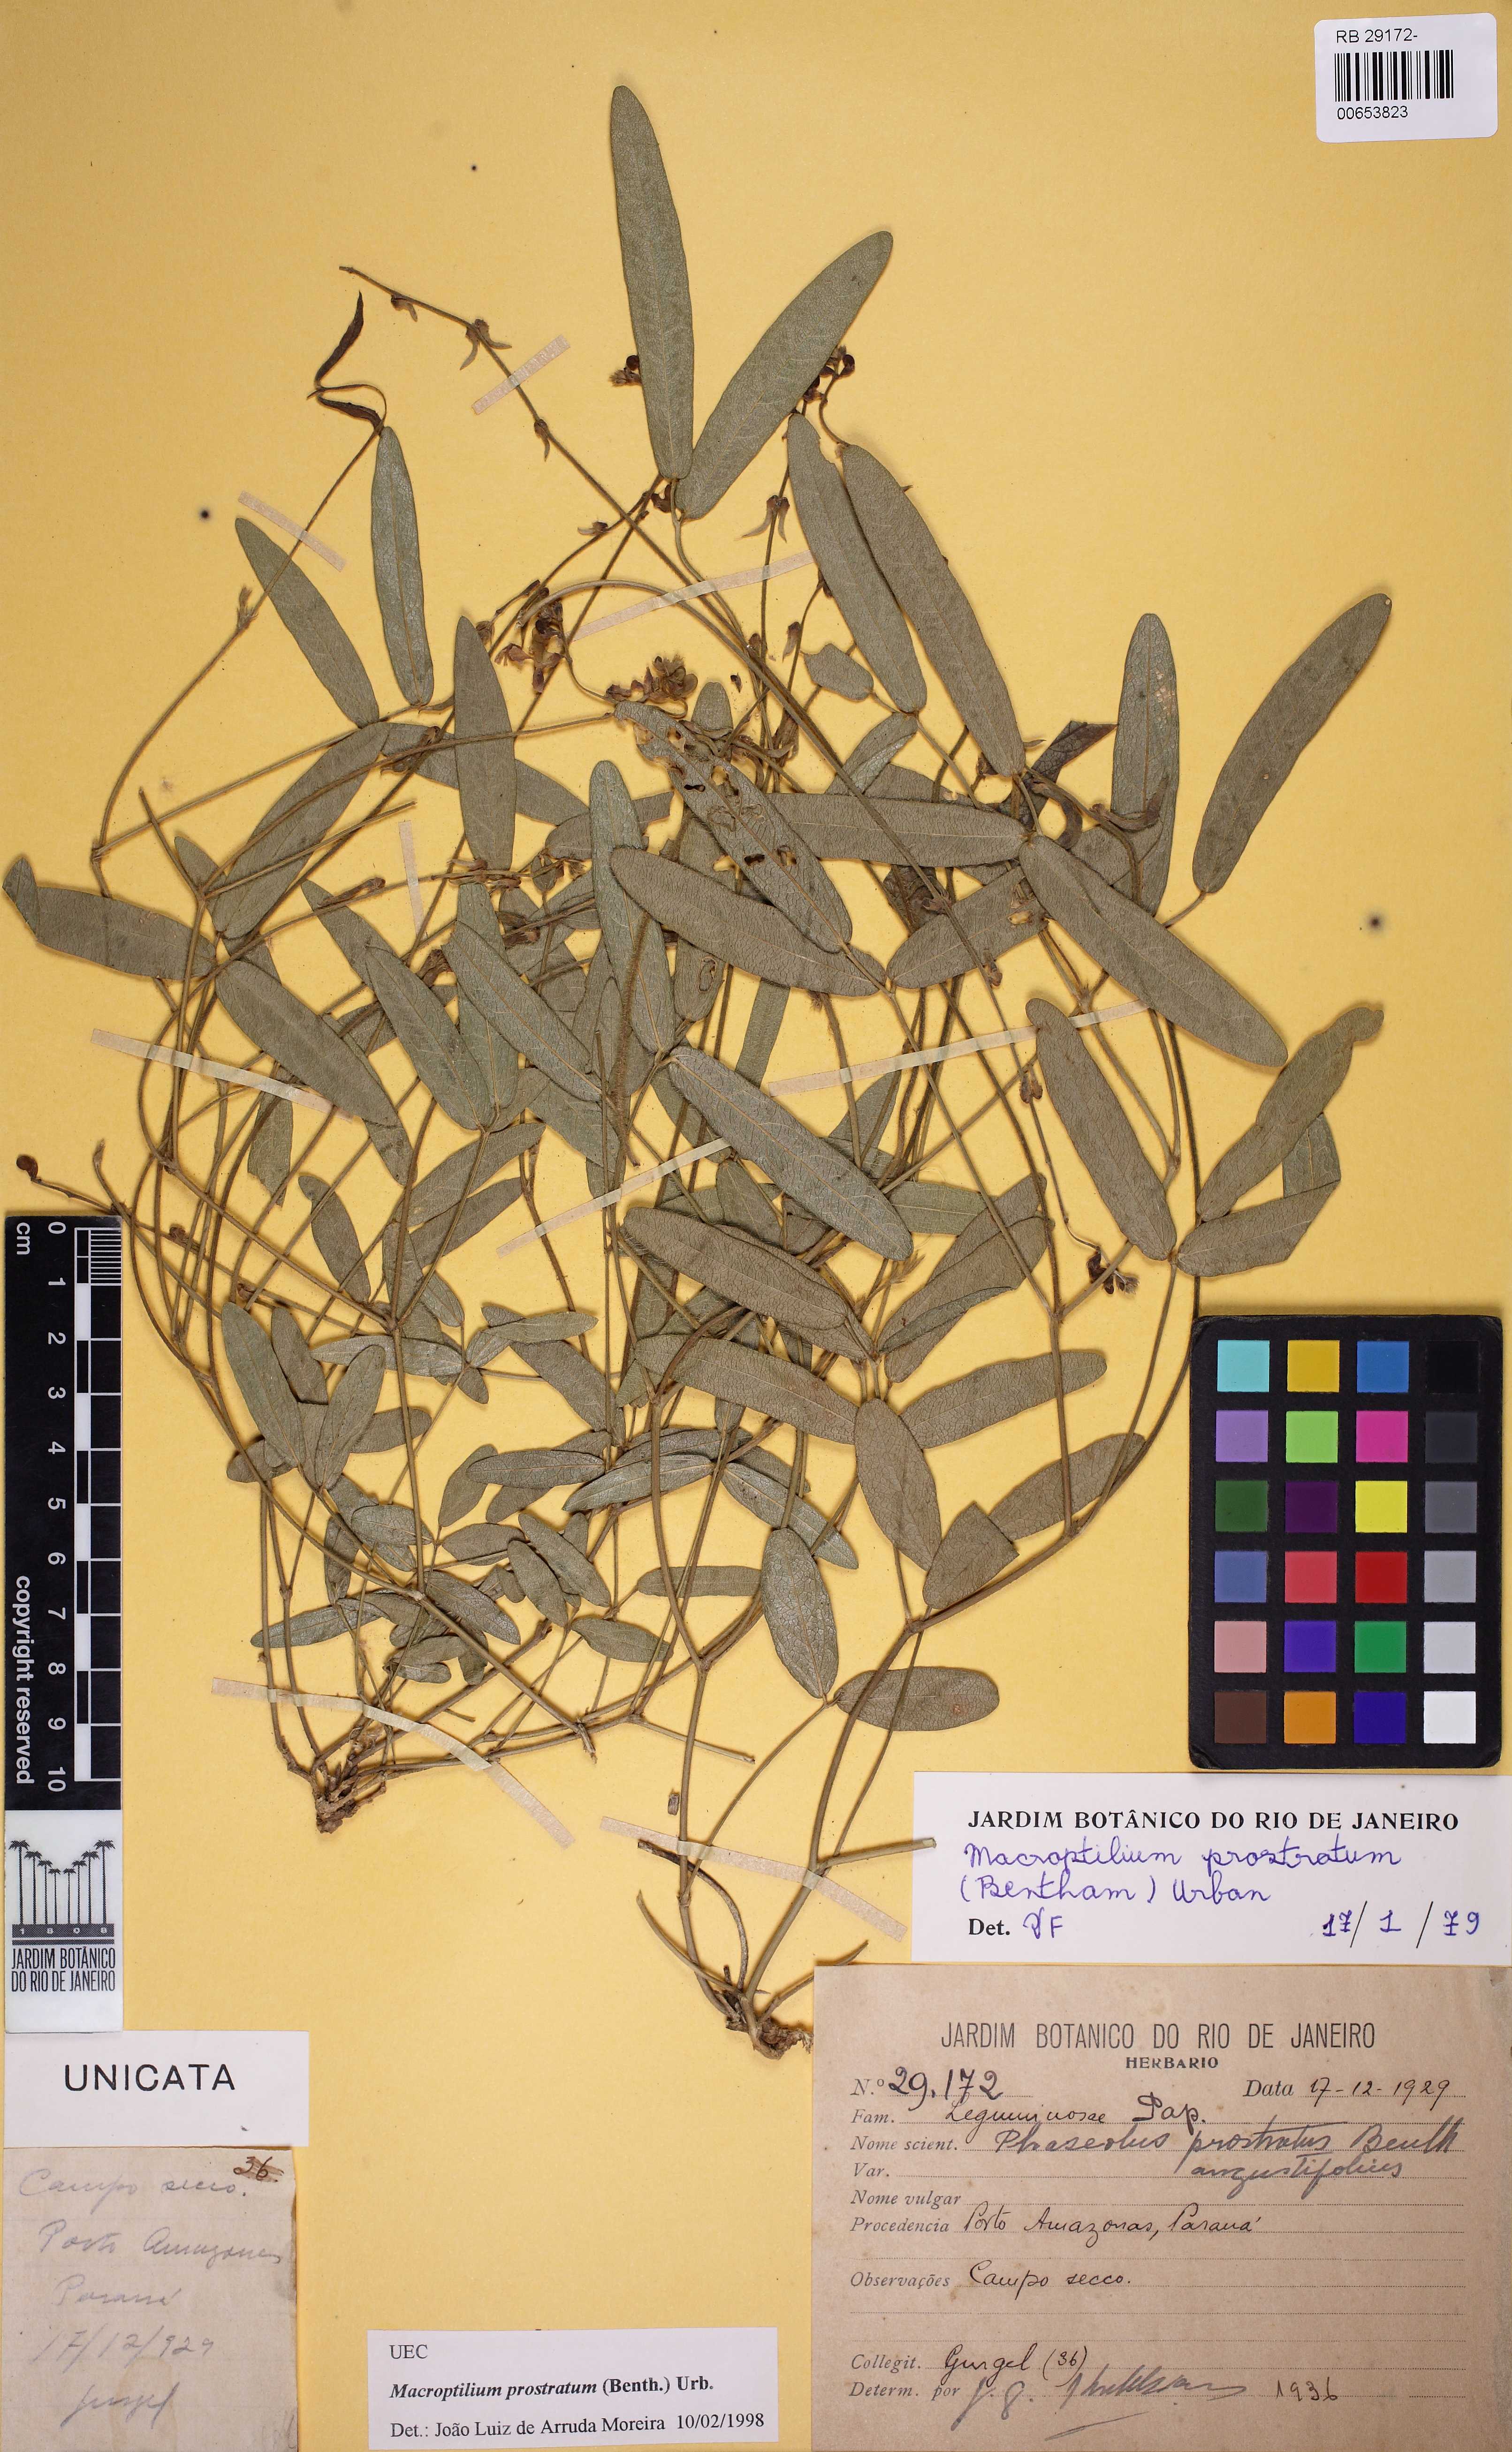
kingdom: Plantae
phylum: Tracheophyta
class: Magnoliopsida
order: Fabales
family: Fabaceae
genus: Macroptilium
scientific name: Macroptilium prostratum
